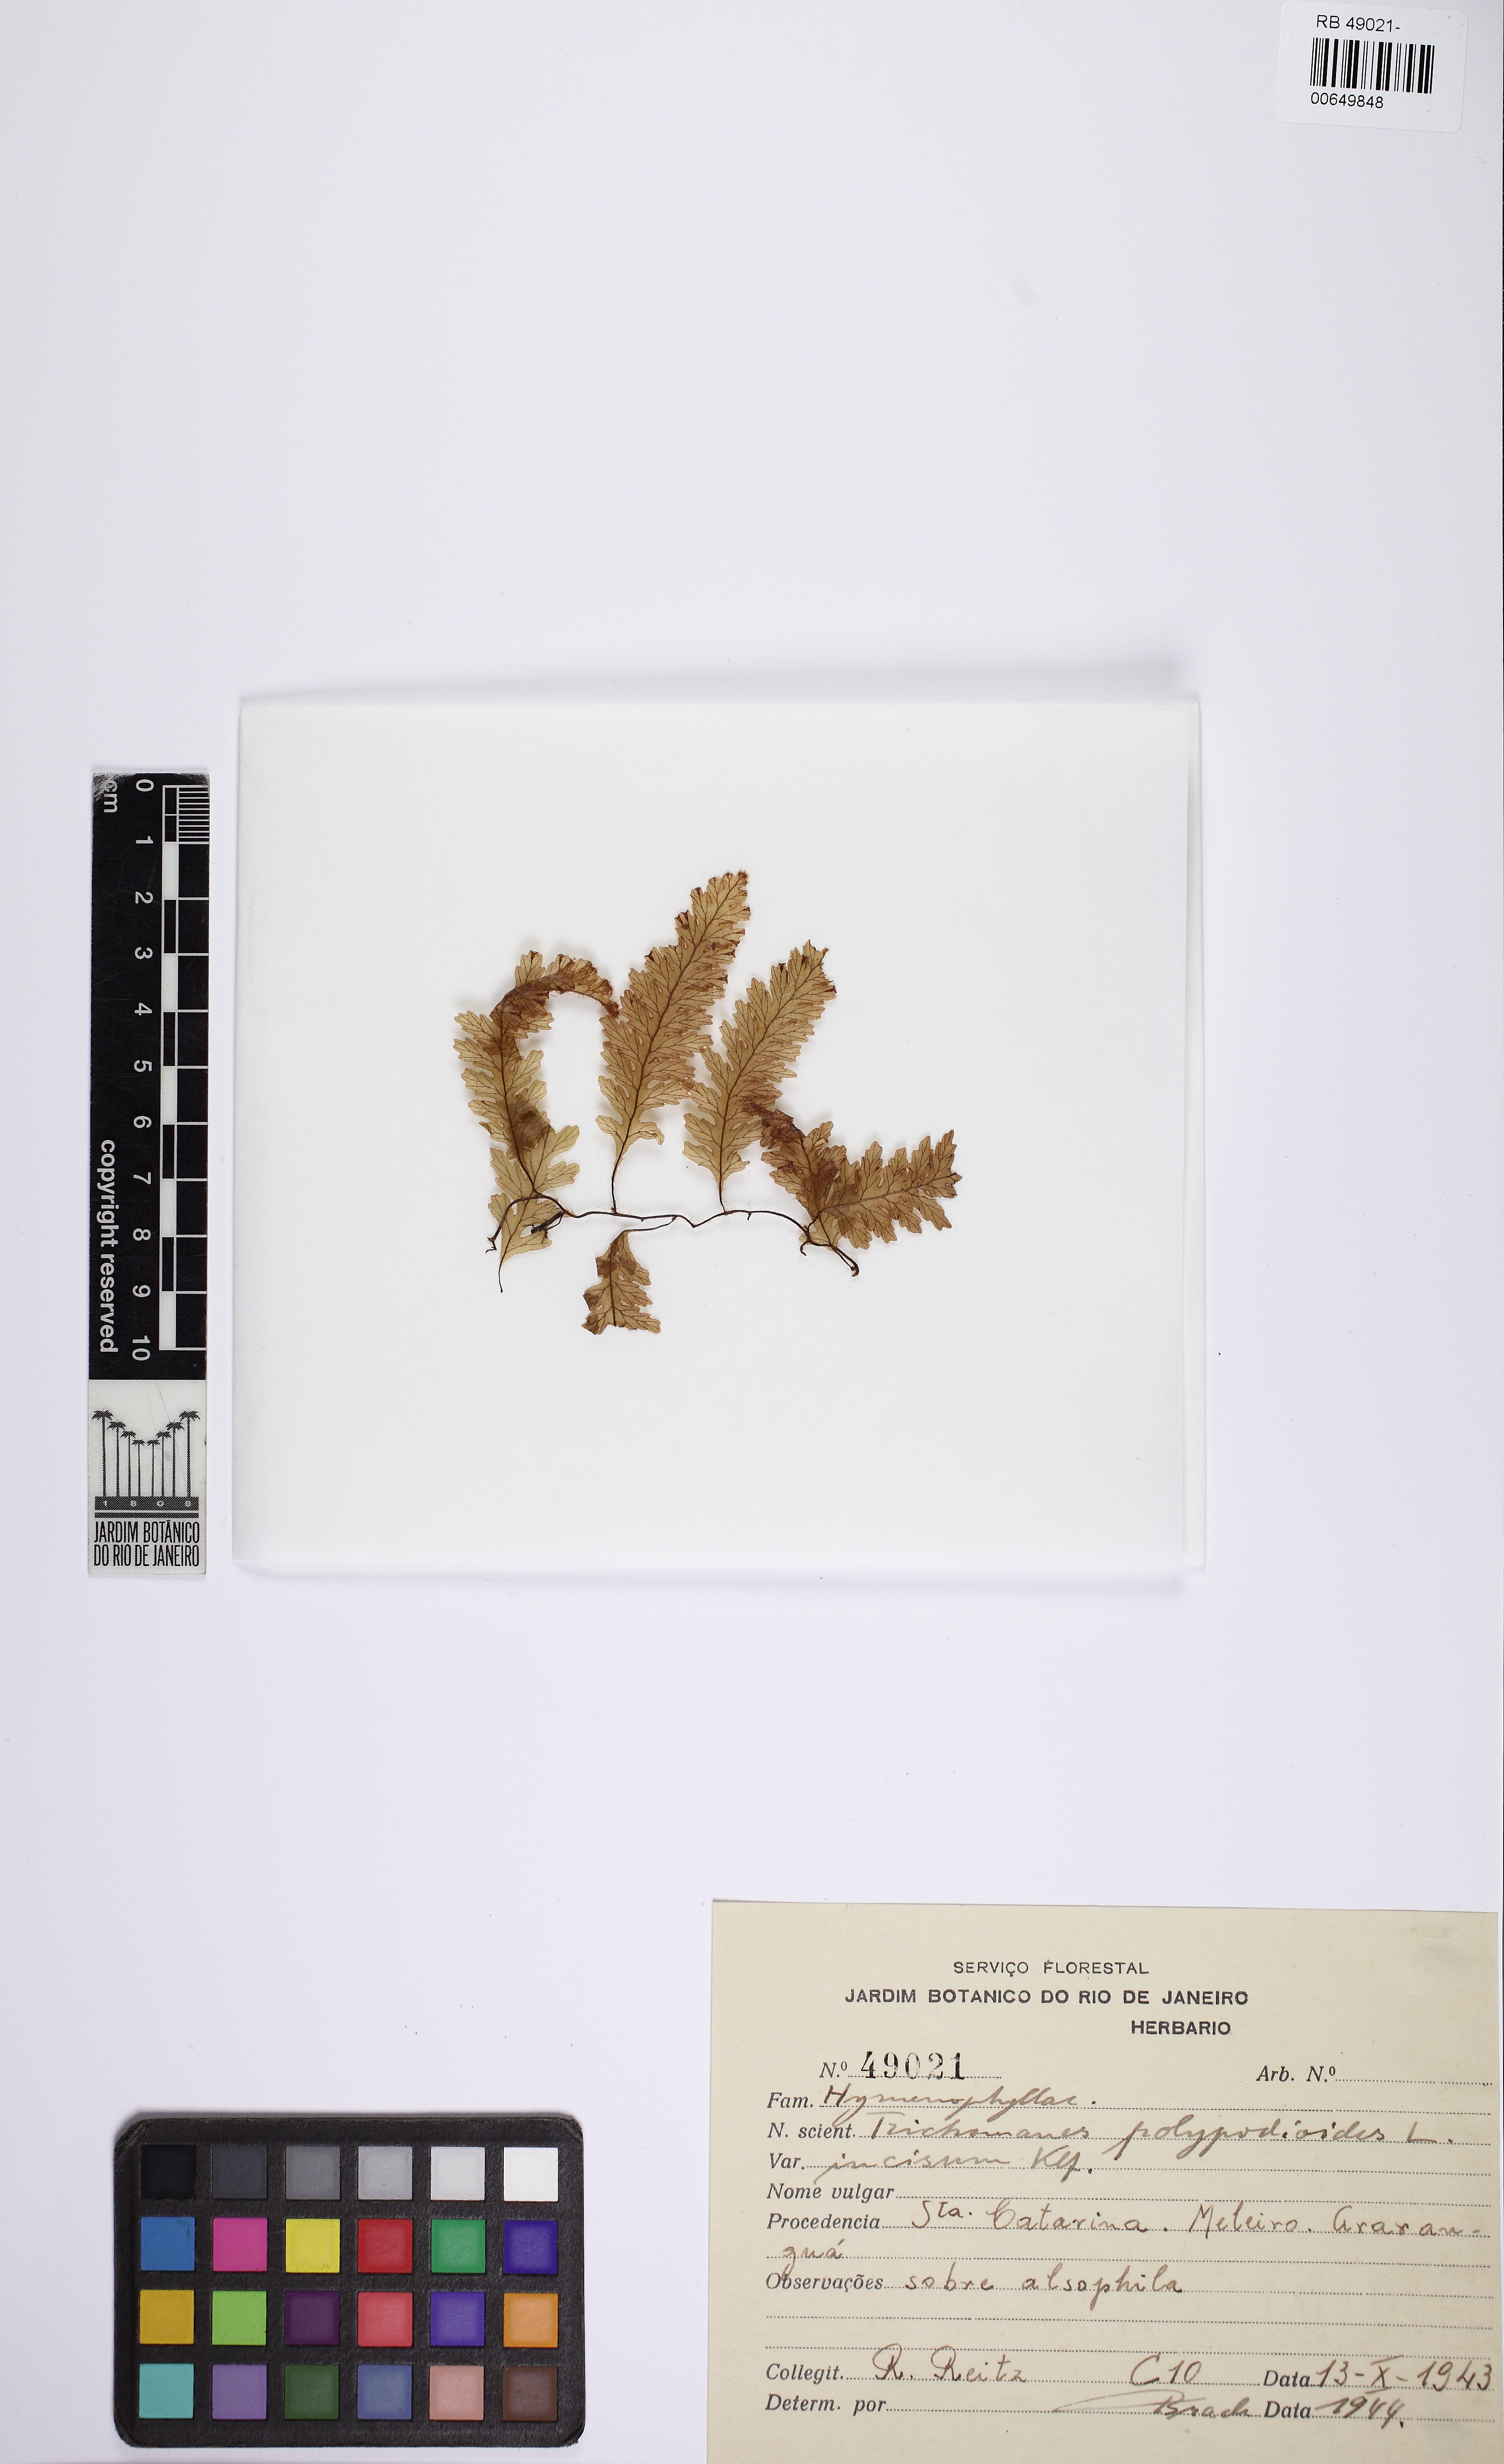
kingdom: Plantae
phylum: Tracheophyta
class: Polypodiopsida
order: Hymenophyllales
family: Hymenophyllaceae
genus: Trichomanes
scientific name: Trichomanes polypodioides
